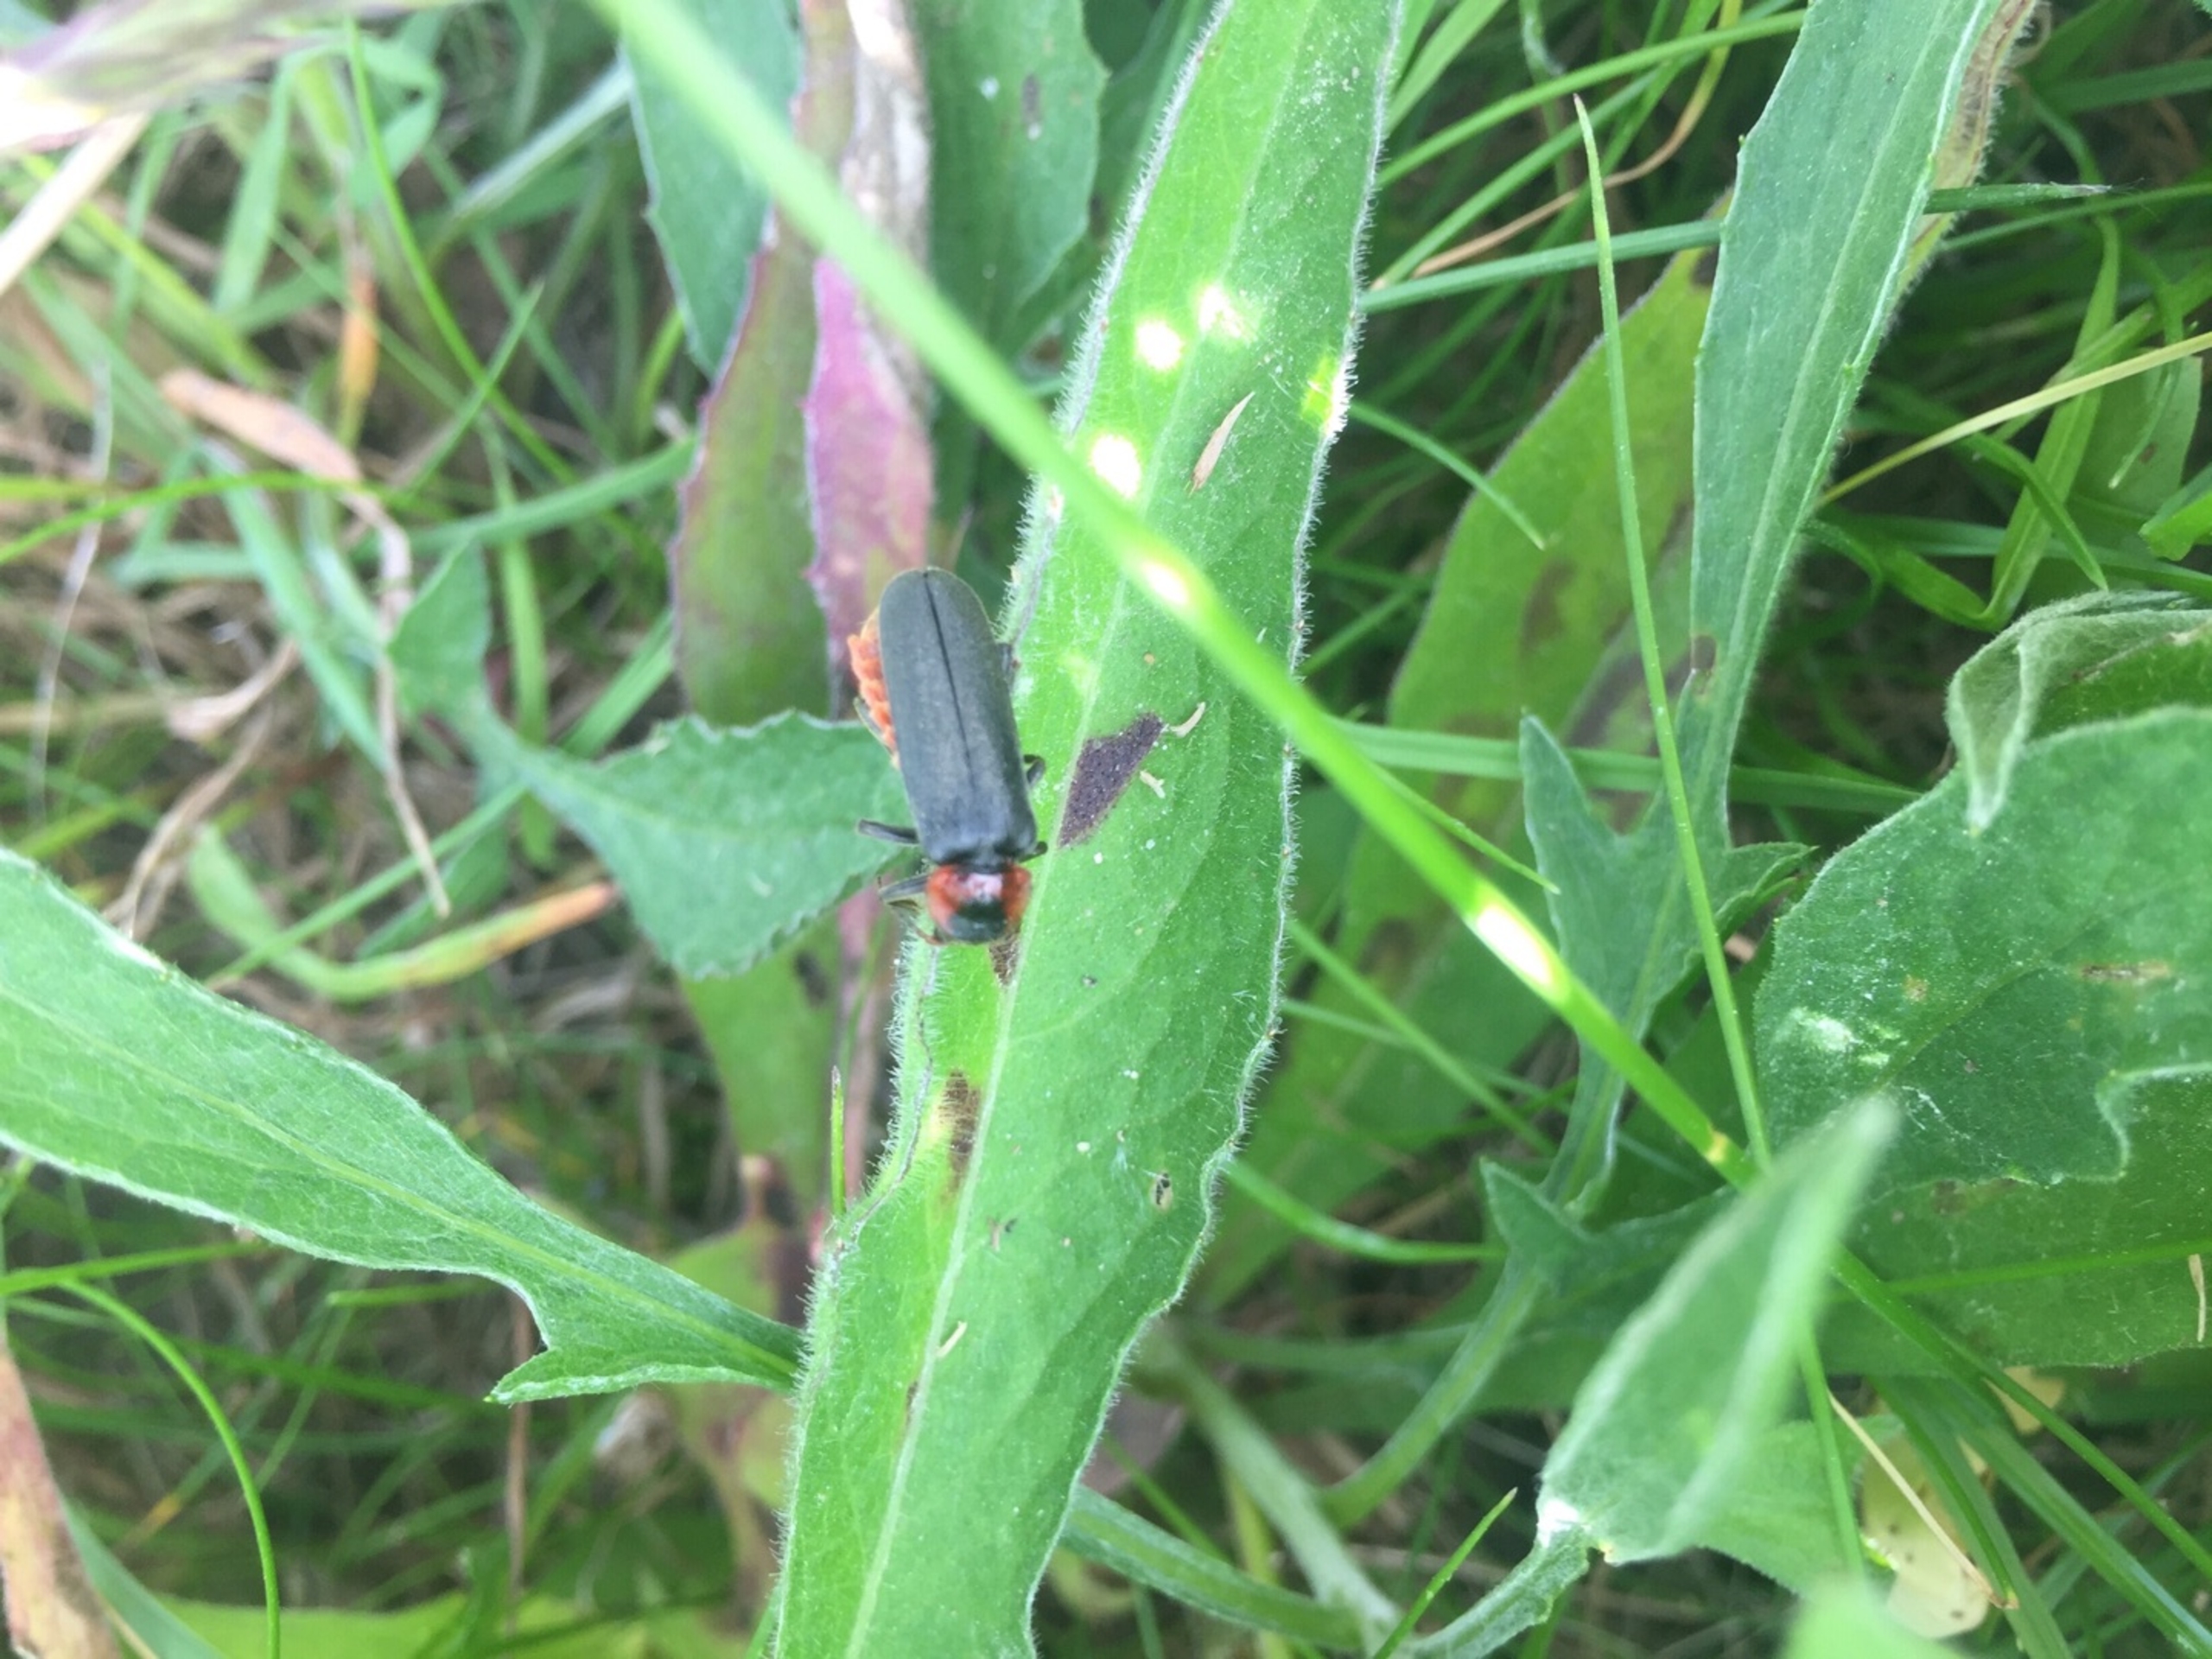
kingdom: Animalia
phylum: Arthropoda
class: Insecta
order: Coleoptera
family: Cantharidae
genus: Cantharis
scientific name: Cantharis fusca
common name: Stor blødvinge
